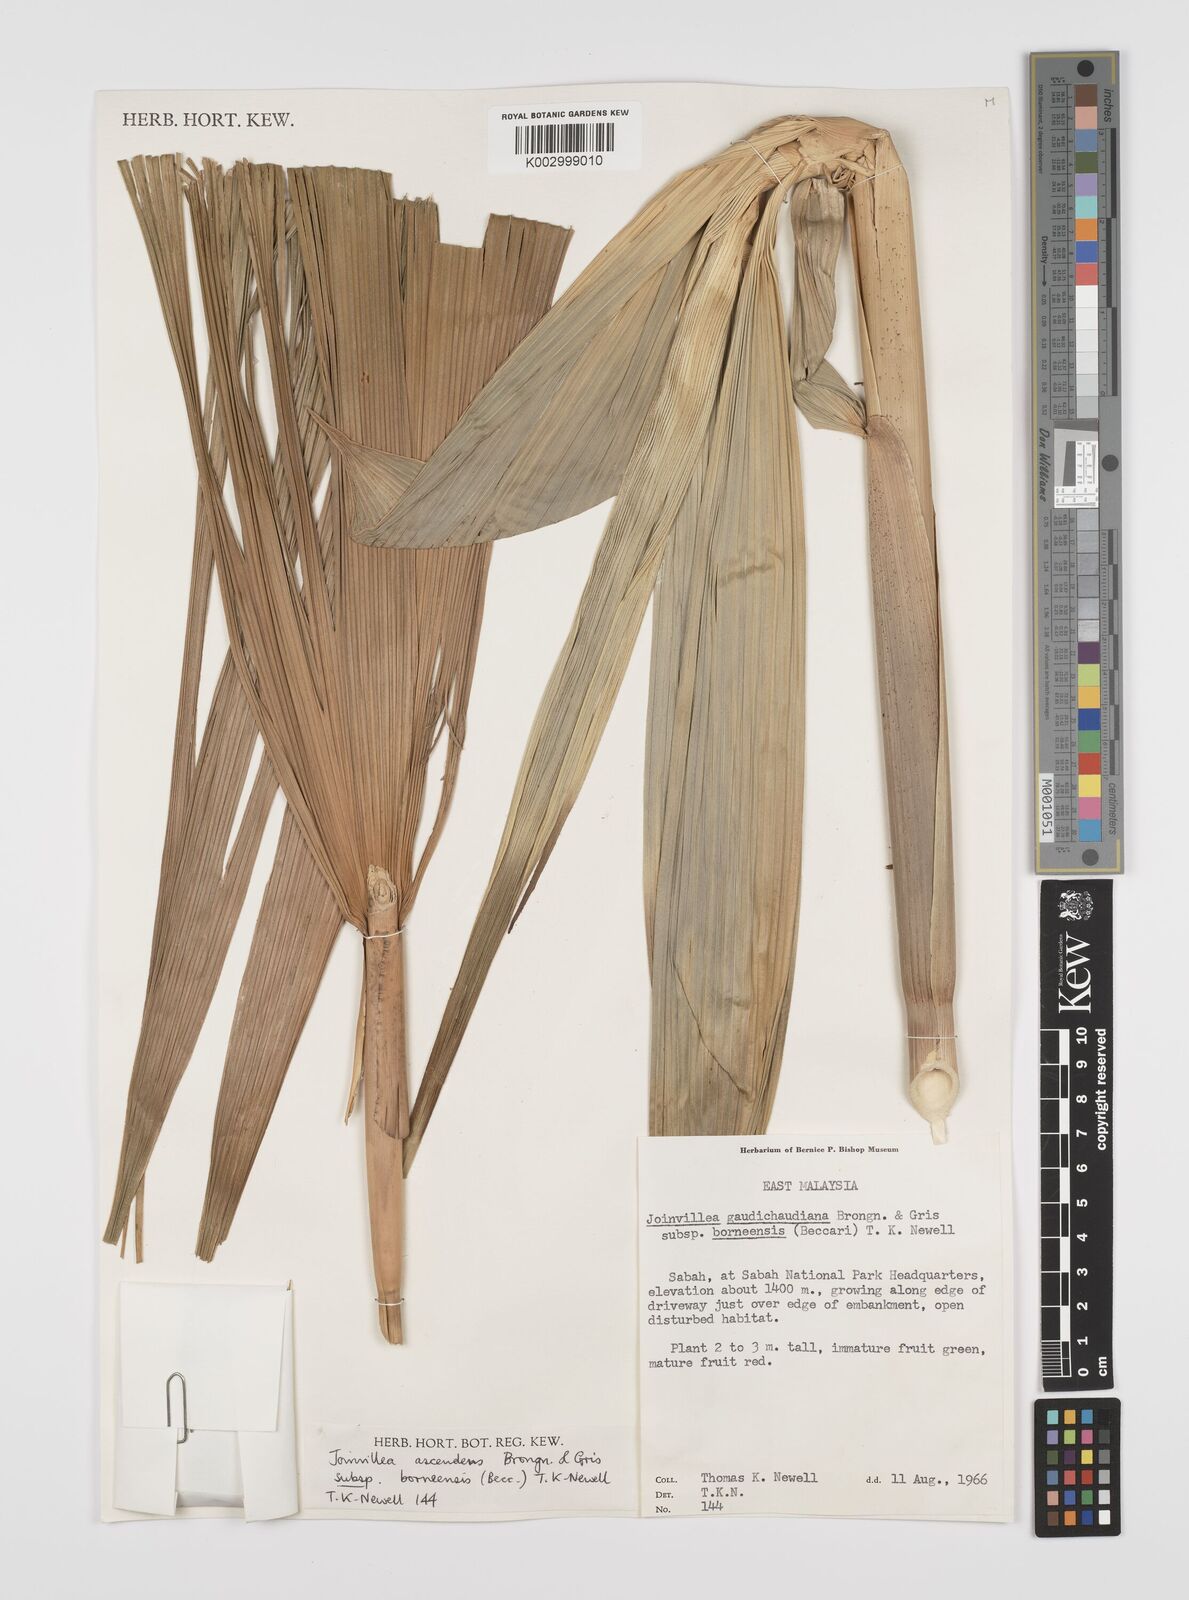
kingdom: Plantae
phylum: Tracheophyta
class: Liliopsida
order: Poales
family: Joinvilleaceae
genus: Joinvillea
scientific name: Joinvillea borneensis
